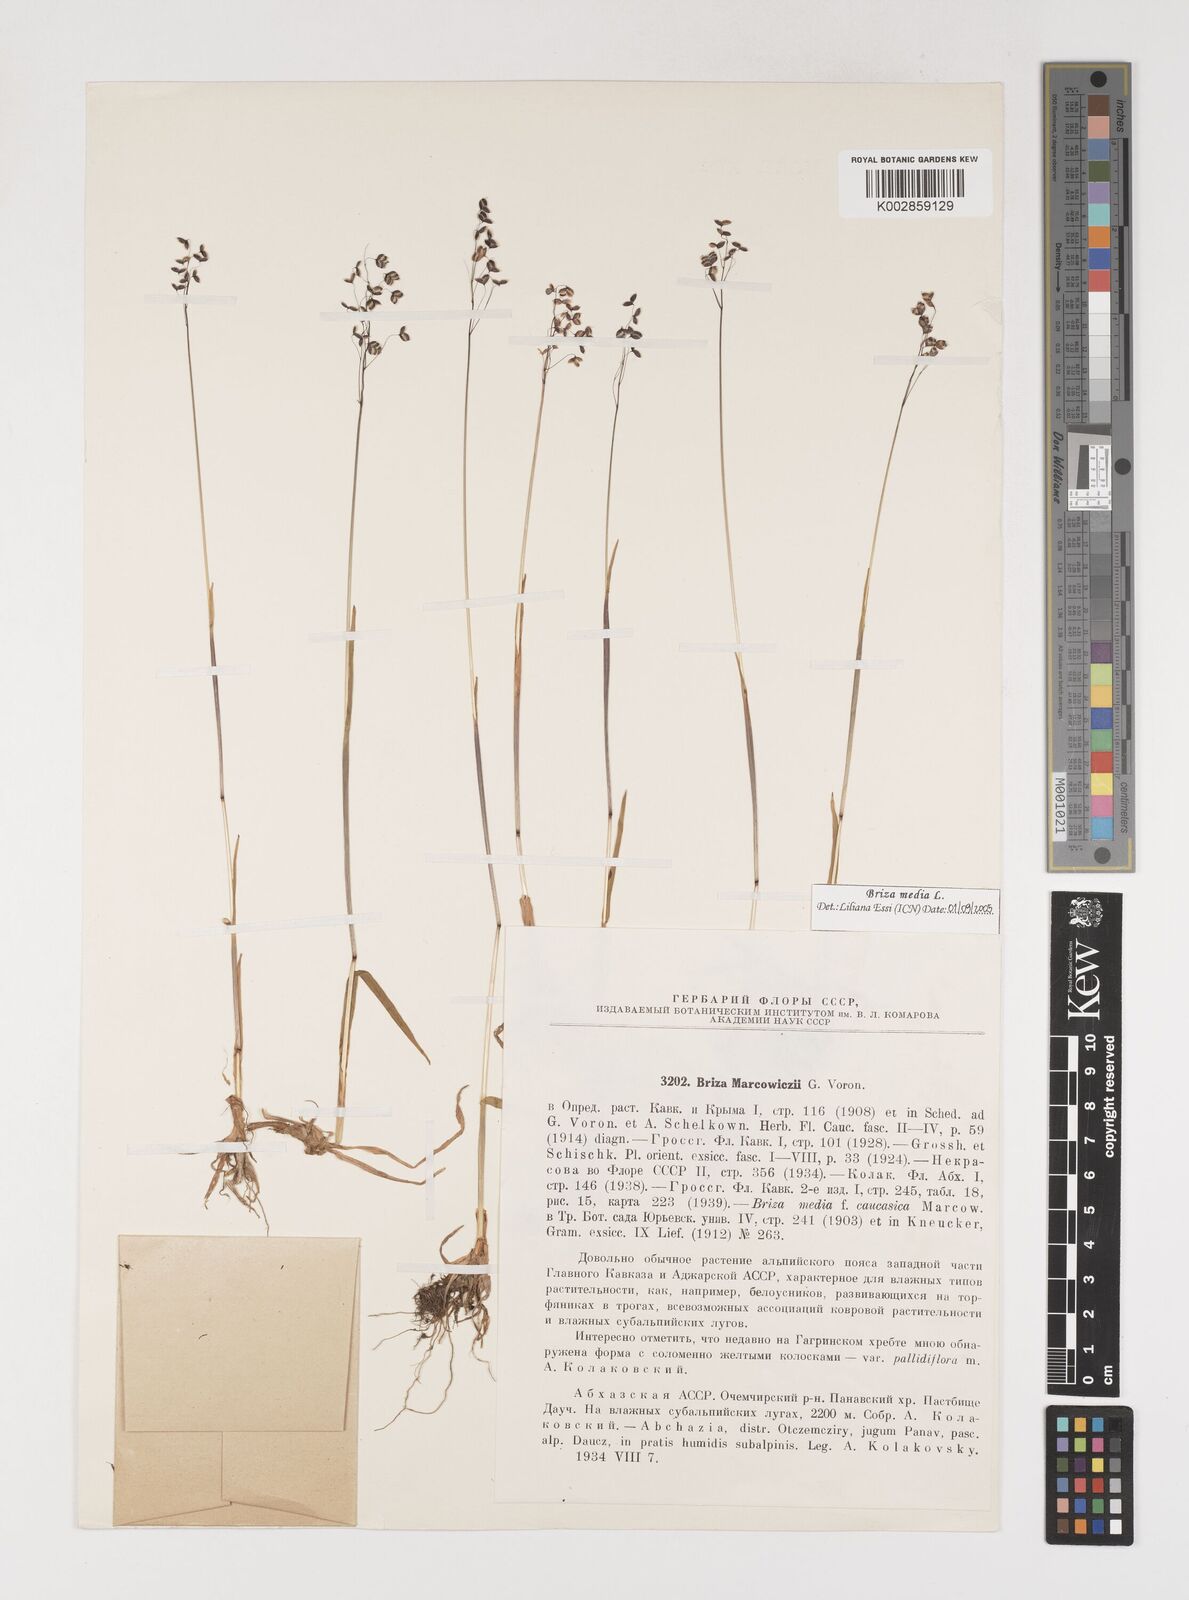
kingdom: Plantae
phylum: Tracheophyta
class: Liliopsida
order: Poales
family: Poaceae
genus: Briza
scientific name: Briza marcowiczii
